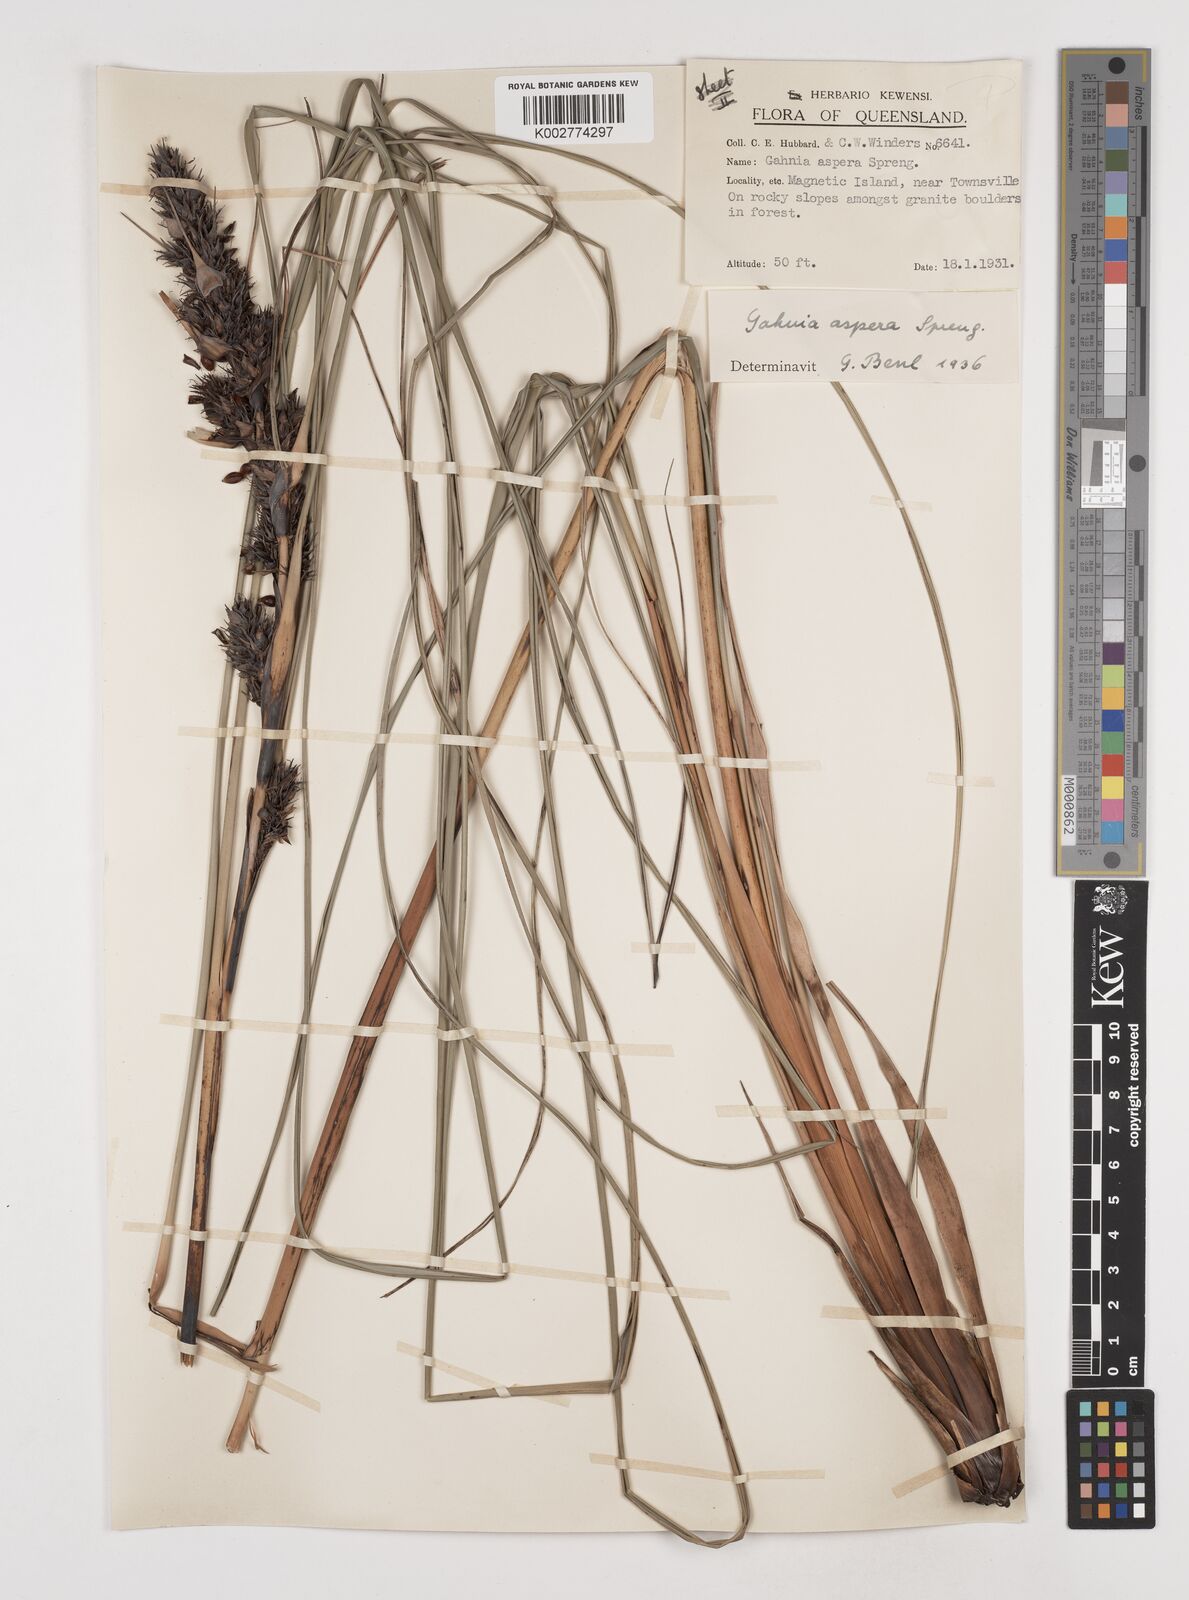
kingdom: Plantae
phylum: Tracheophyta
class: Liliopsida
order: Poales
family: Cyperaceae
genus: Gahnia
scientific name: Gahnia aspera
